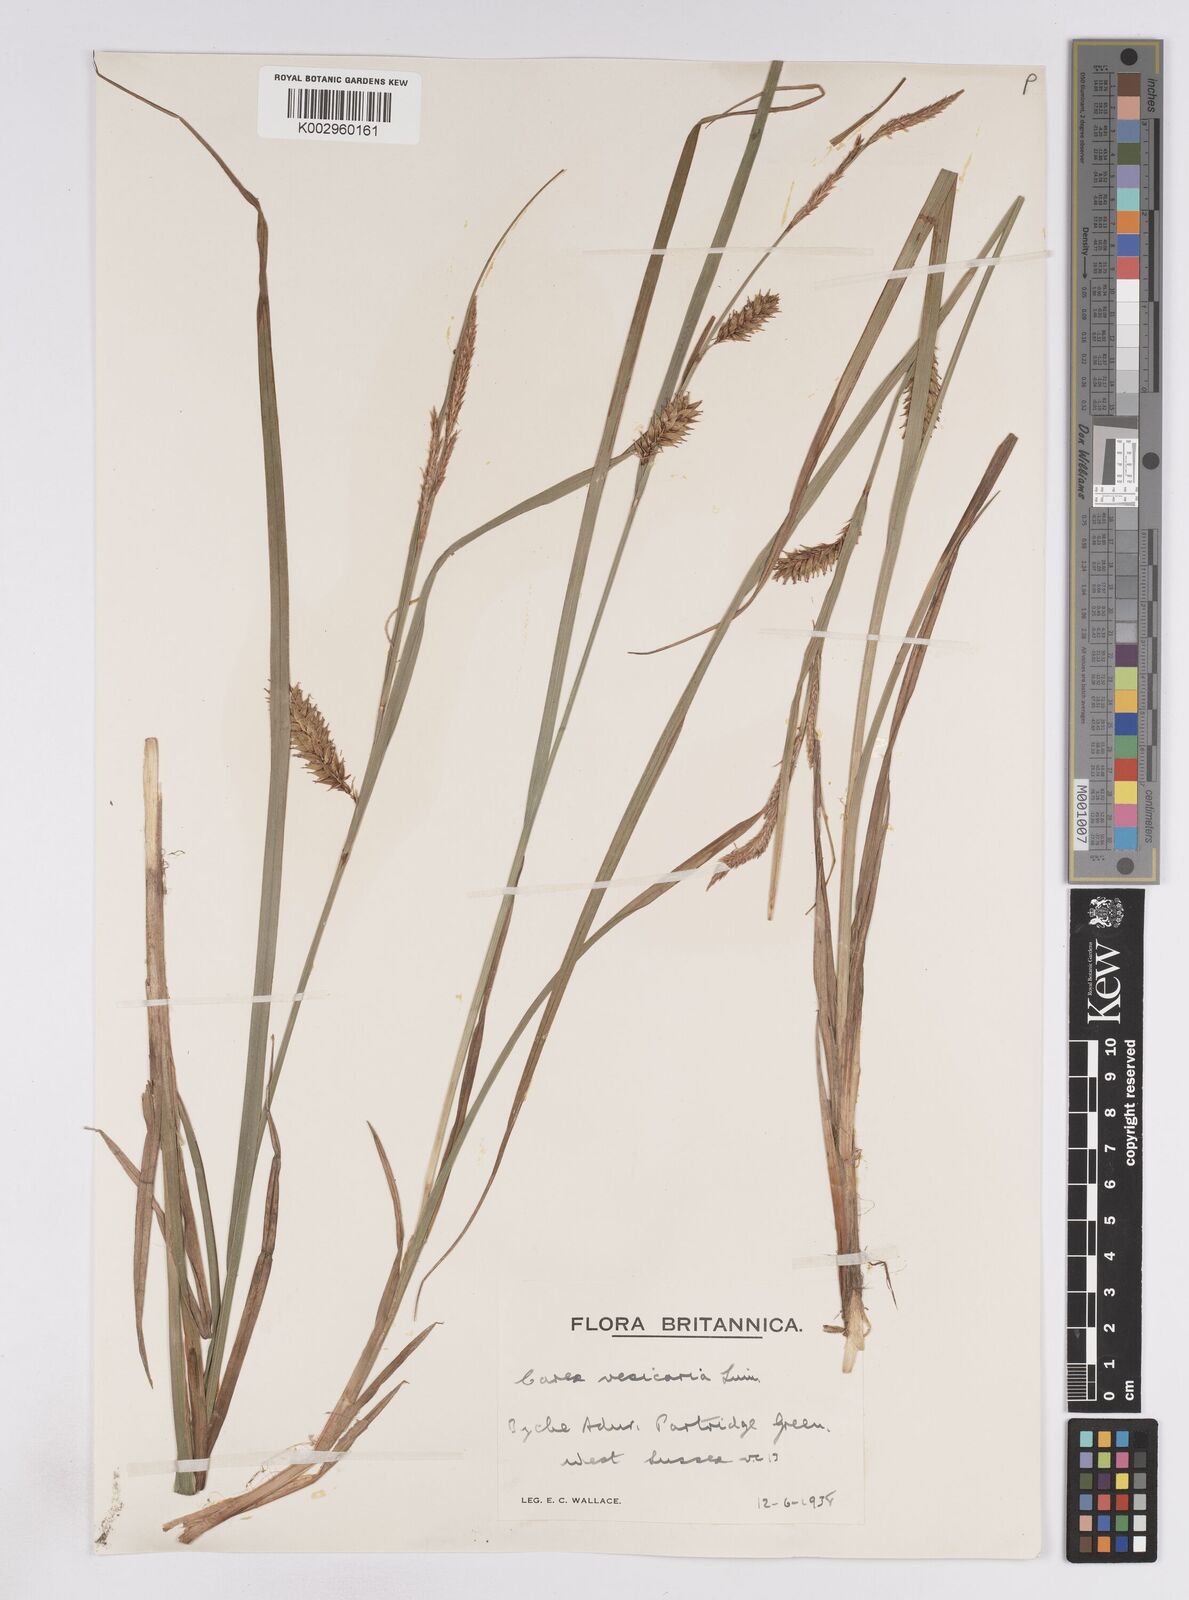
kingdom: Plantae
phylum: Tracheophyta
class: Liliopsida
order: Poales
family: Cyperaceae
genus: Carex
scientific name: Carex vesicaria
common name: Bladder-sedge
